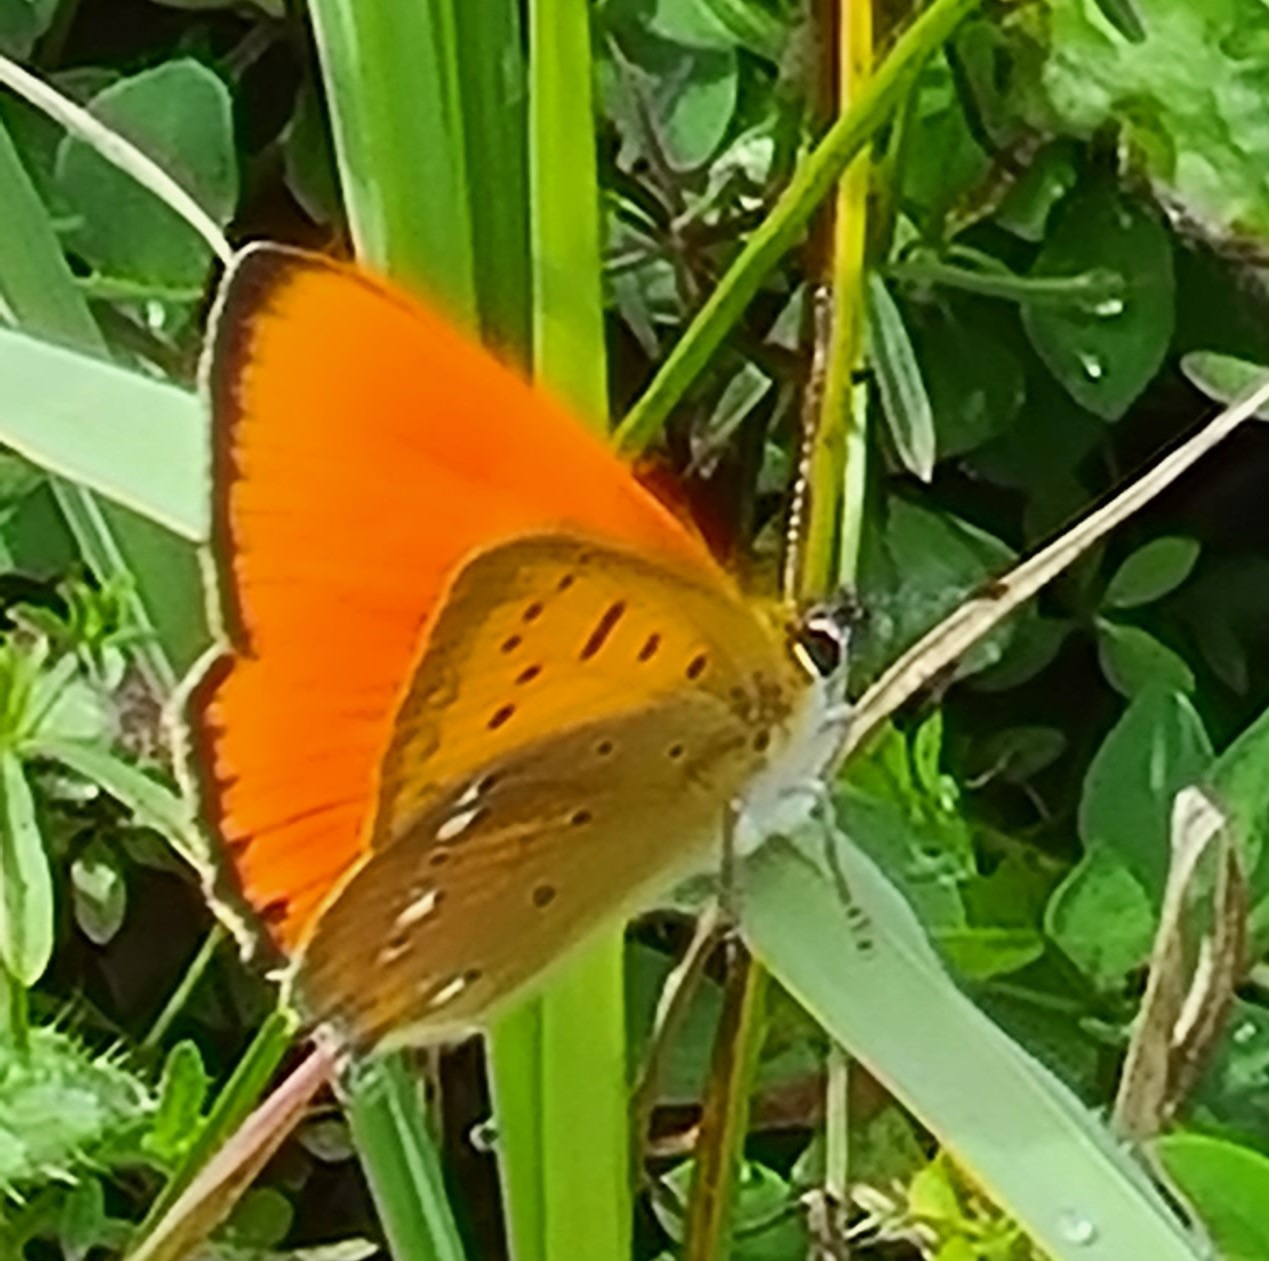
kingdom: Animalia
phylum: Arthropoda
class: Insecta
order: Lepidoptera
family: Lycaenidae
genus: Lycaena
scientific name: Lycaena virgaureae
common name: Dukatsommerfugl
